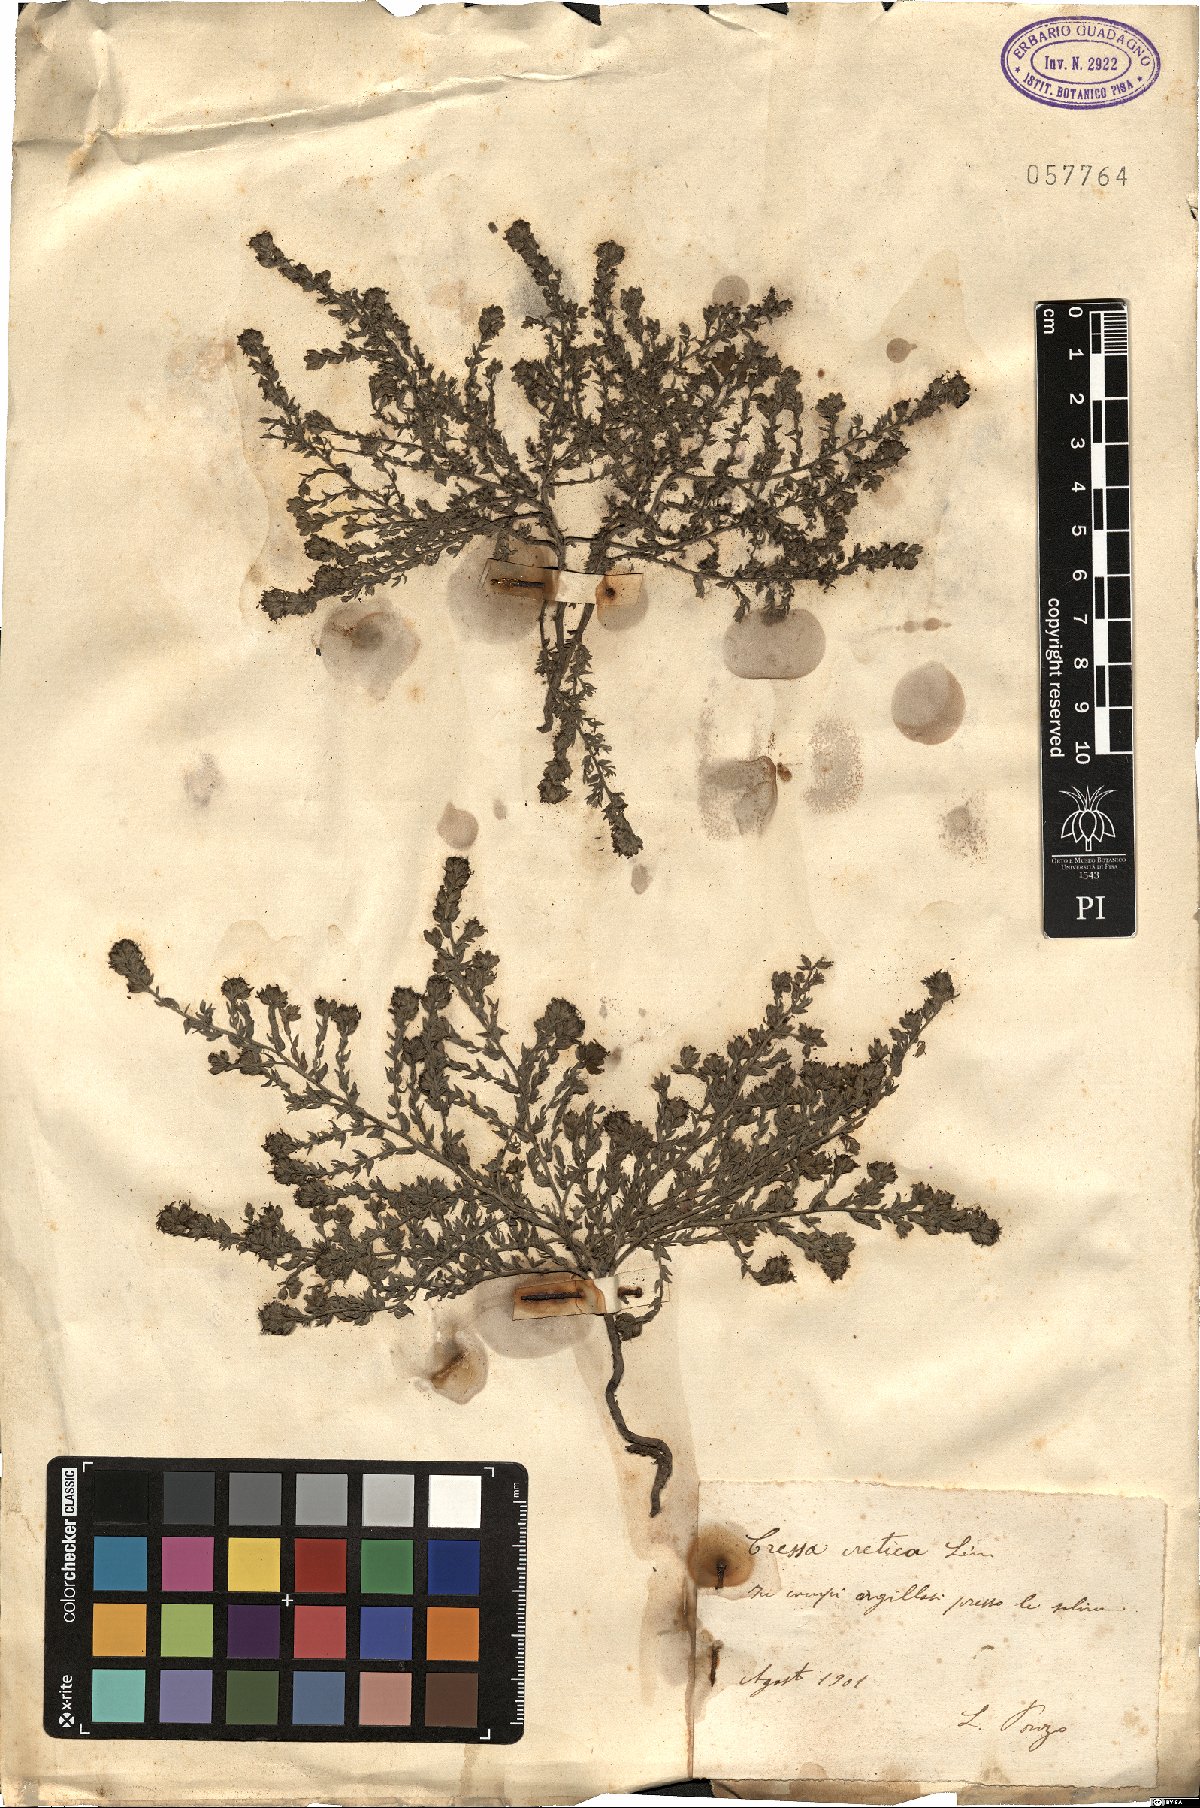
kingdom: Plantae
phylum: Tracheophyta
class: Magnoliopsida
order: Solanales
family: Convolvulaceae
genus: Cressa
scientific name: Cressa cretica
